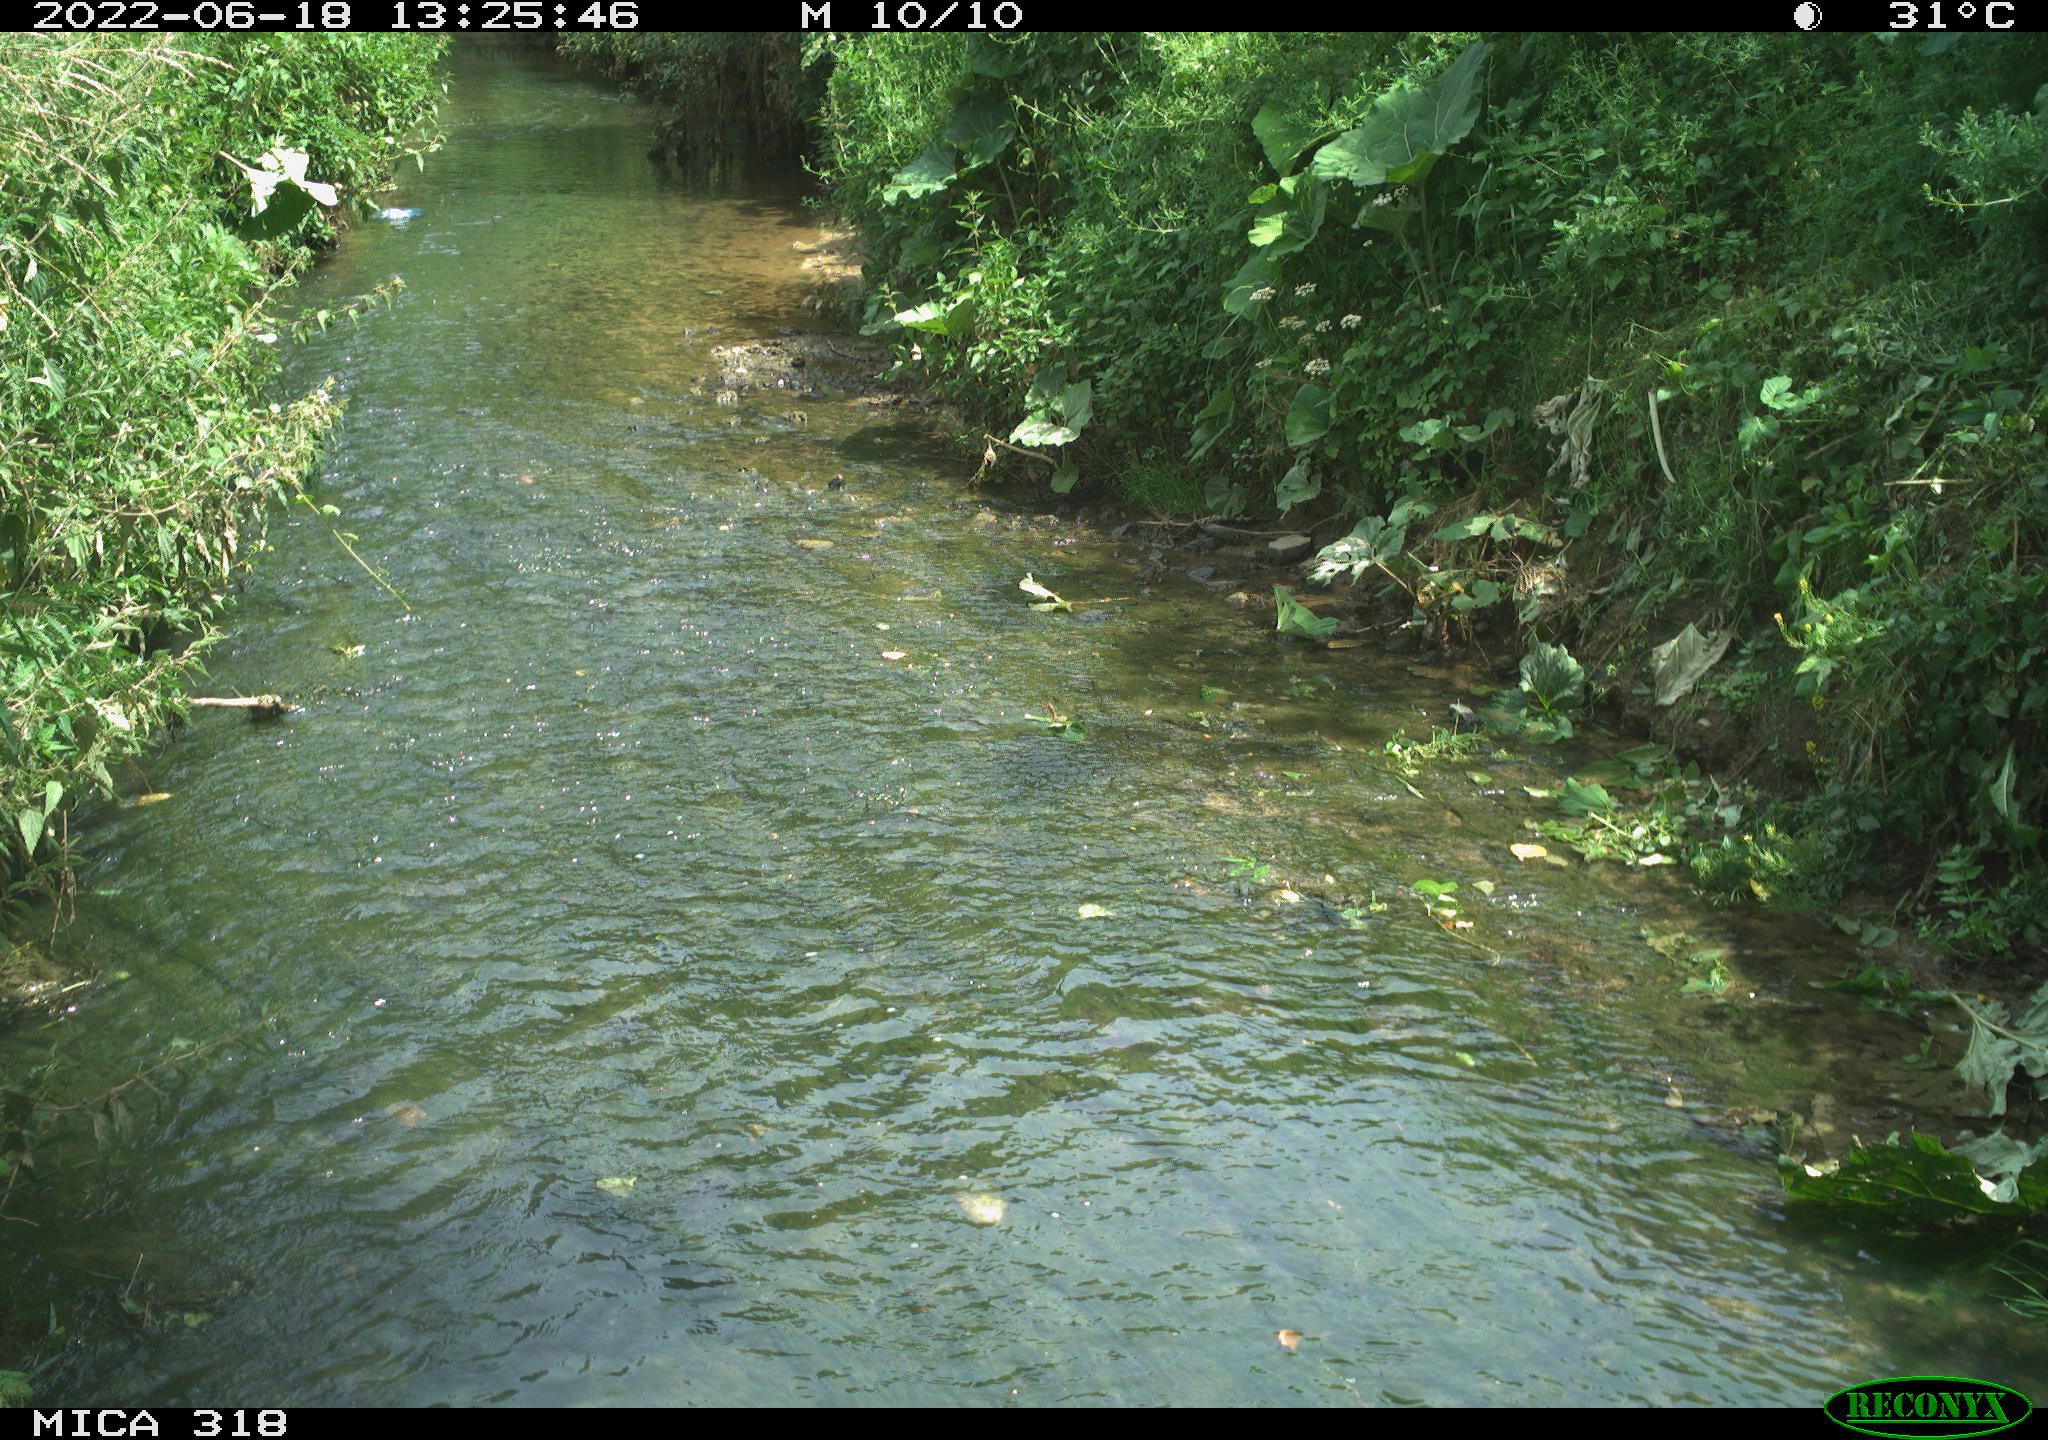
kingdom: Animalia
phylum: Chordata
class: Aves
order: Pelecaniformes
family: Ardeidae
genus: Ardea
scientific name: Ardea cinerea
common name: Grey heron
